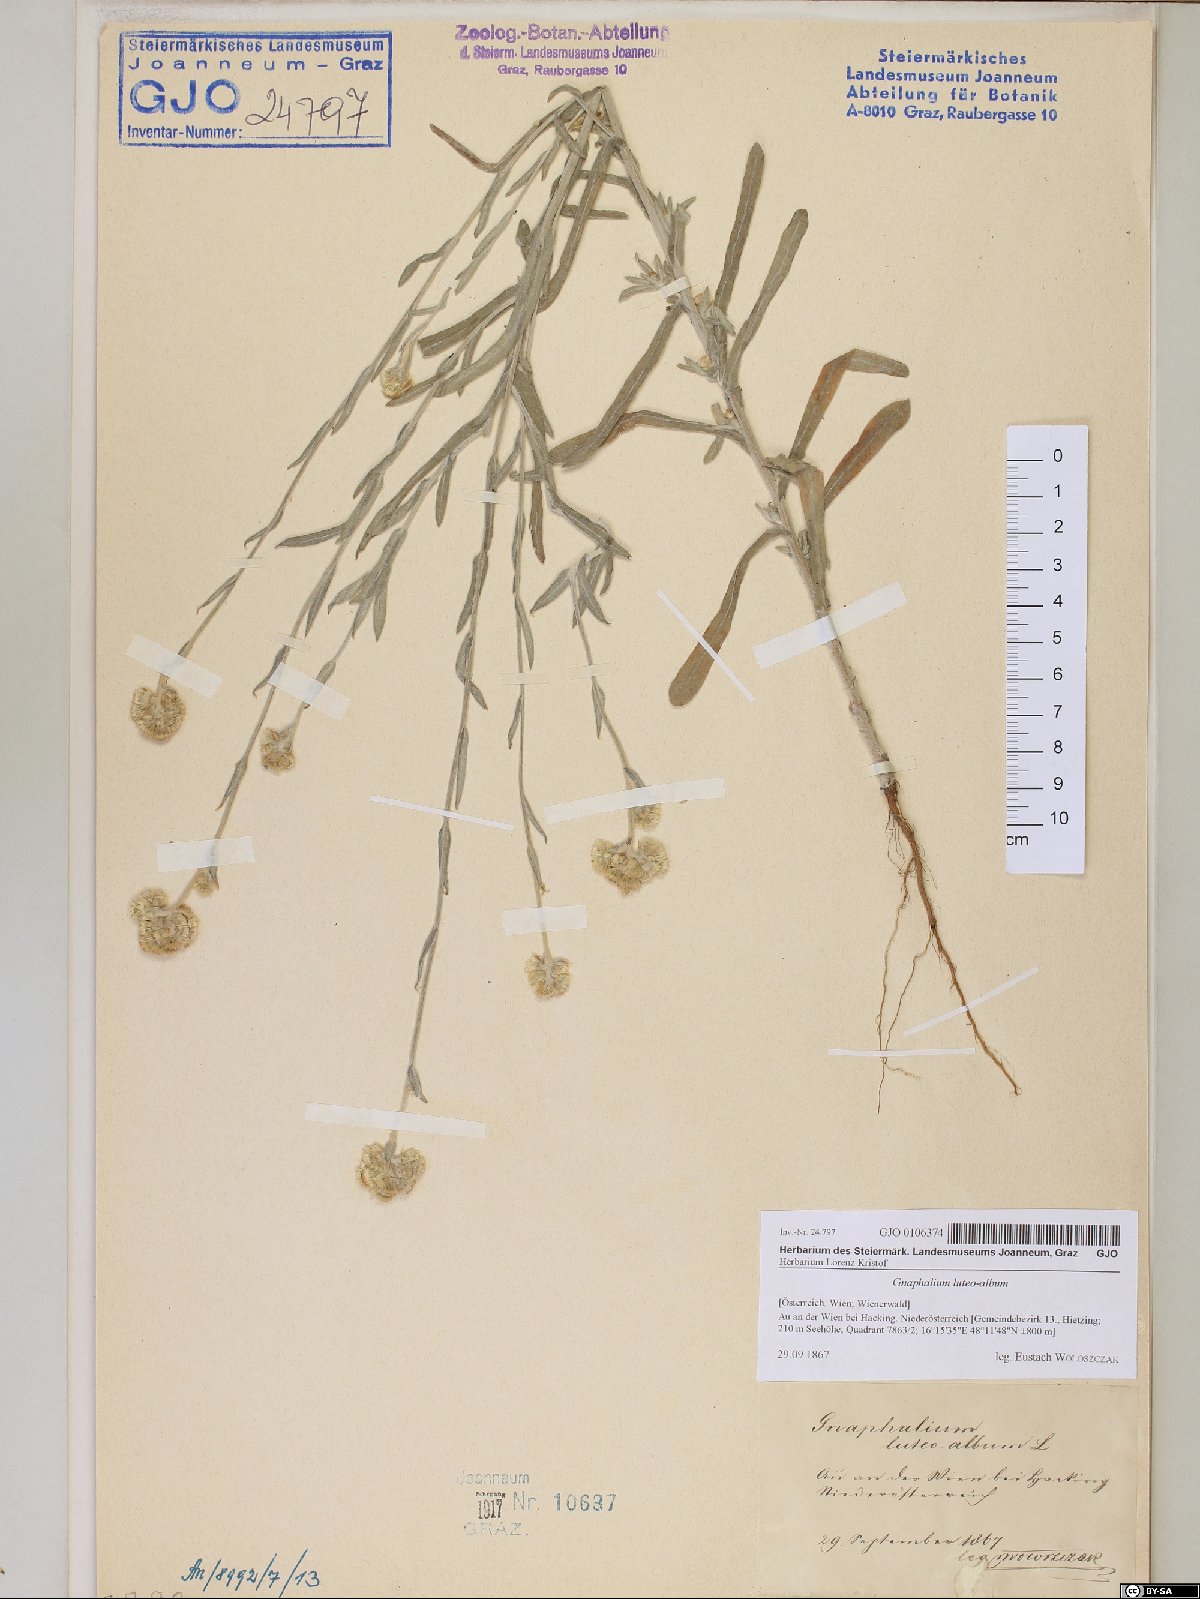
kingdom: Plantae
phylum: Tracheophyta
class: Magnoliopsida
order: Asterales
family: Asteraceae
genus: Helichrysum
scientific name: Helichrysum luteoalbum
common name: Daisy
